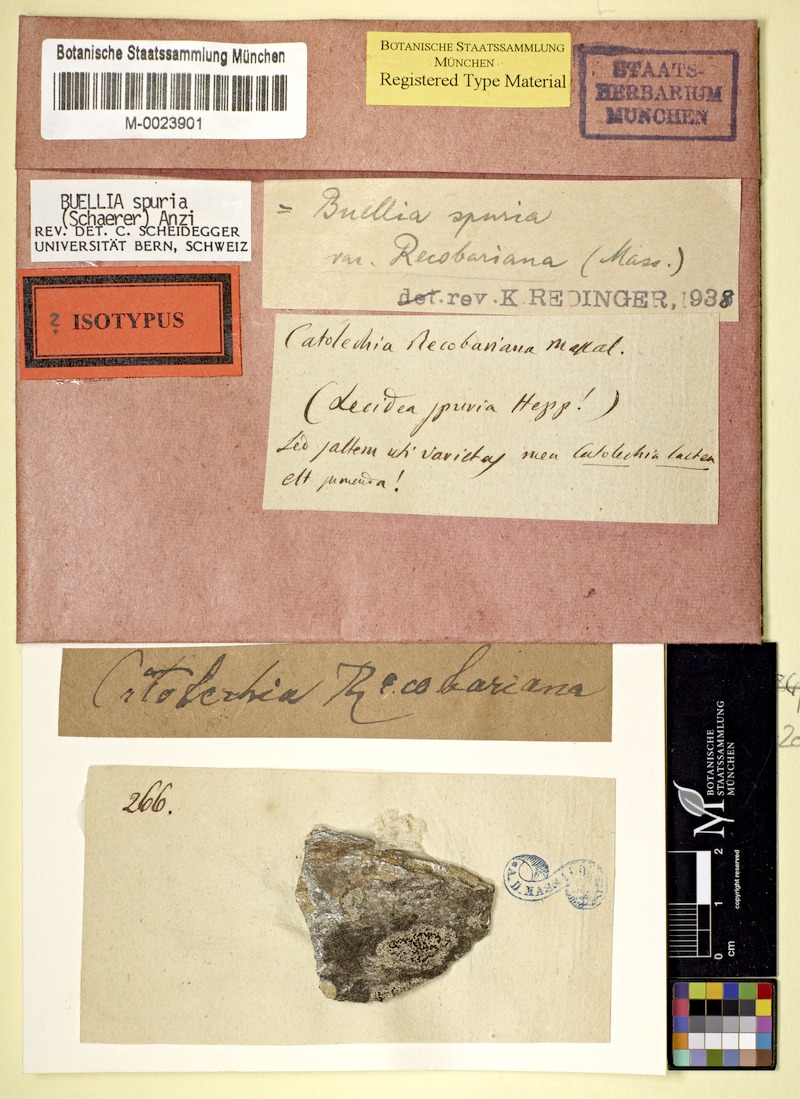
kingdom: Fungi
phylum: Ascomycota
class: Lecanoromycetes
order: Caliciales
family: Caliciaceae
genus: Buellia
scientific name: Buellia spuria
